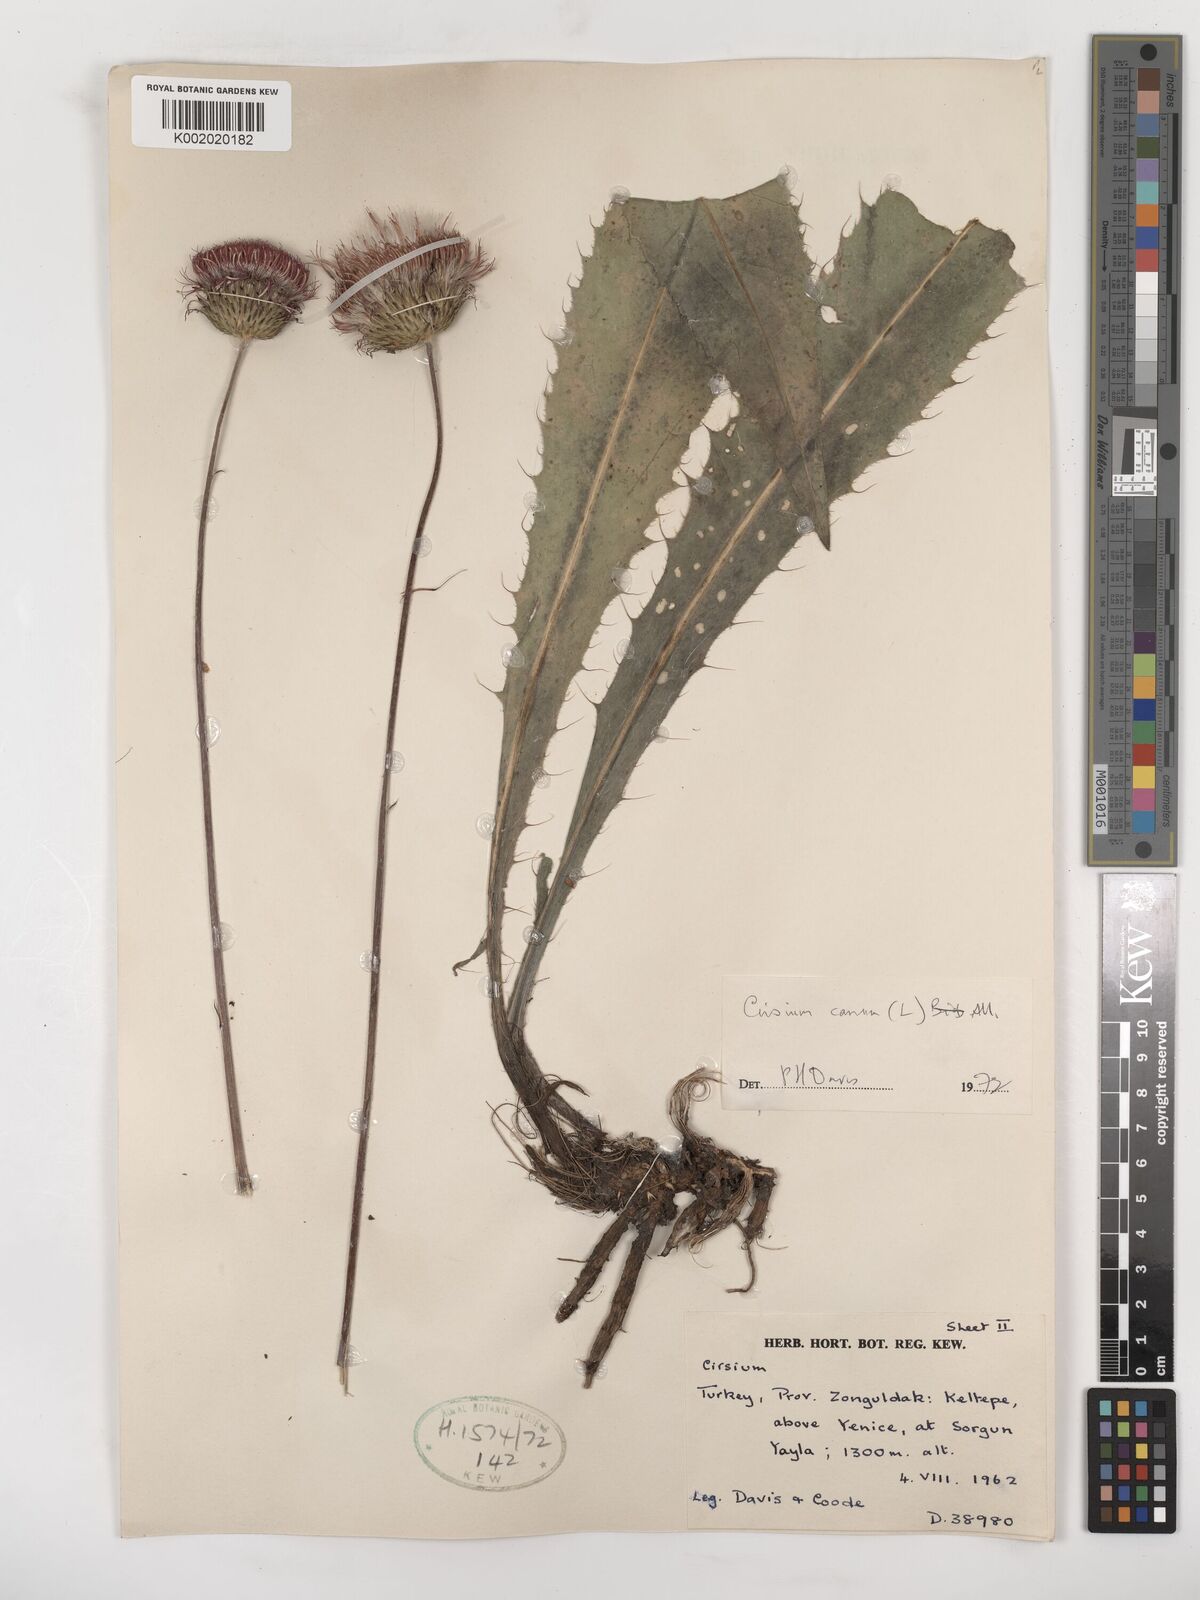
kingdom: Plantae
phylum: Tracheophyta
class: Magnoliopsida
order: Asterales
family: Asteraceae
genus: Cirsium
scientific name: Cirsium canum
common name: Queen anne's thistle
